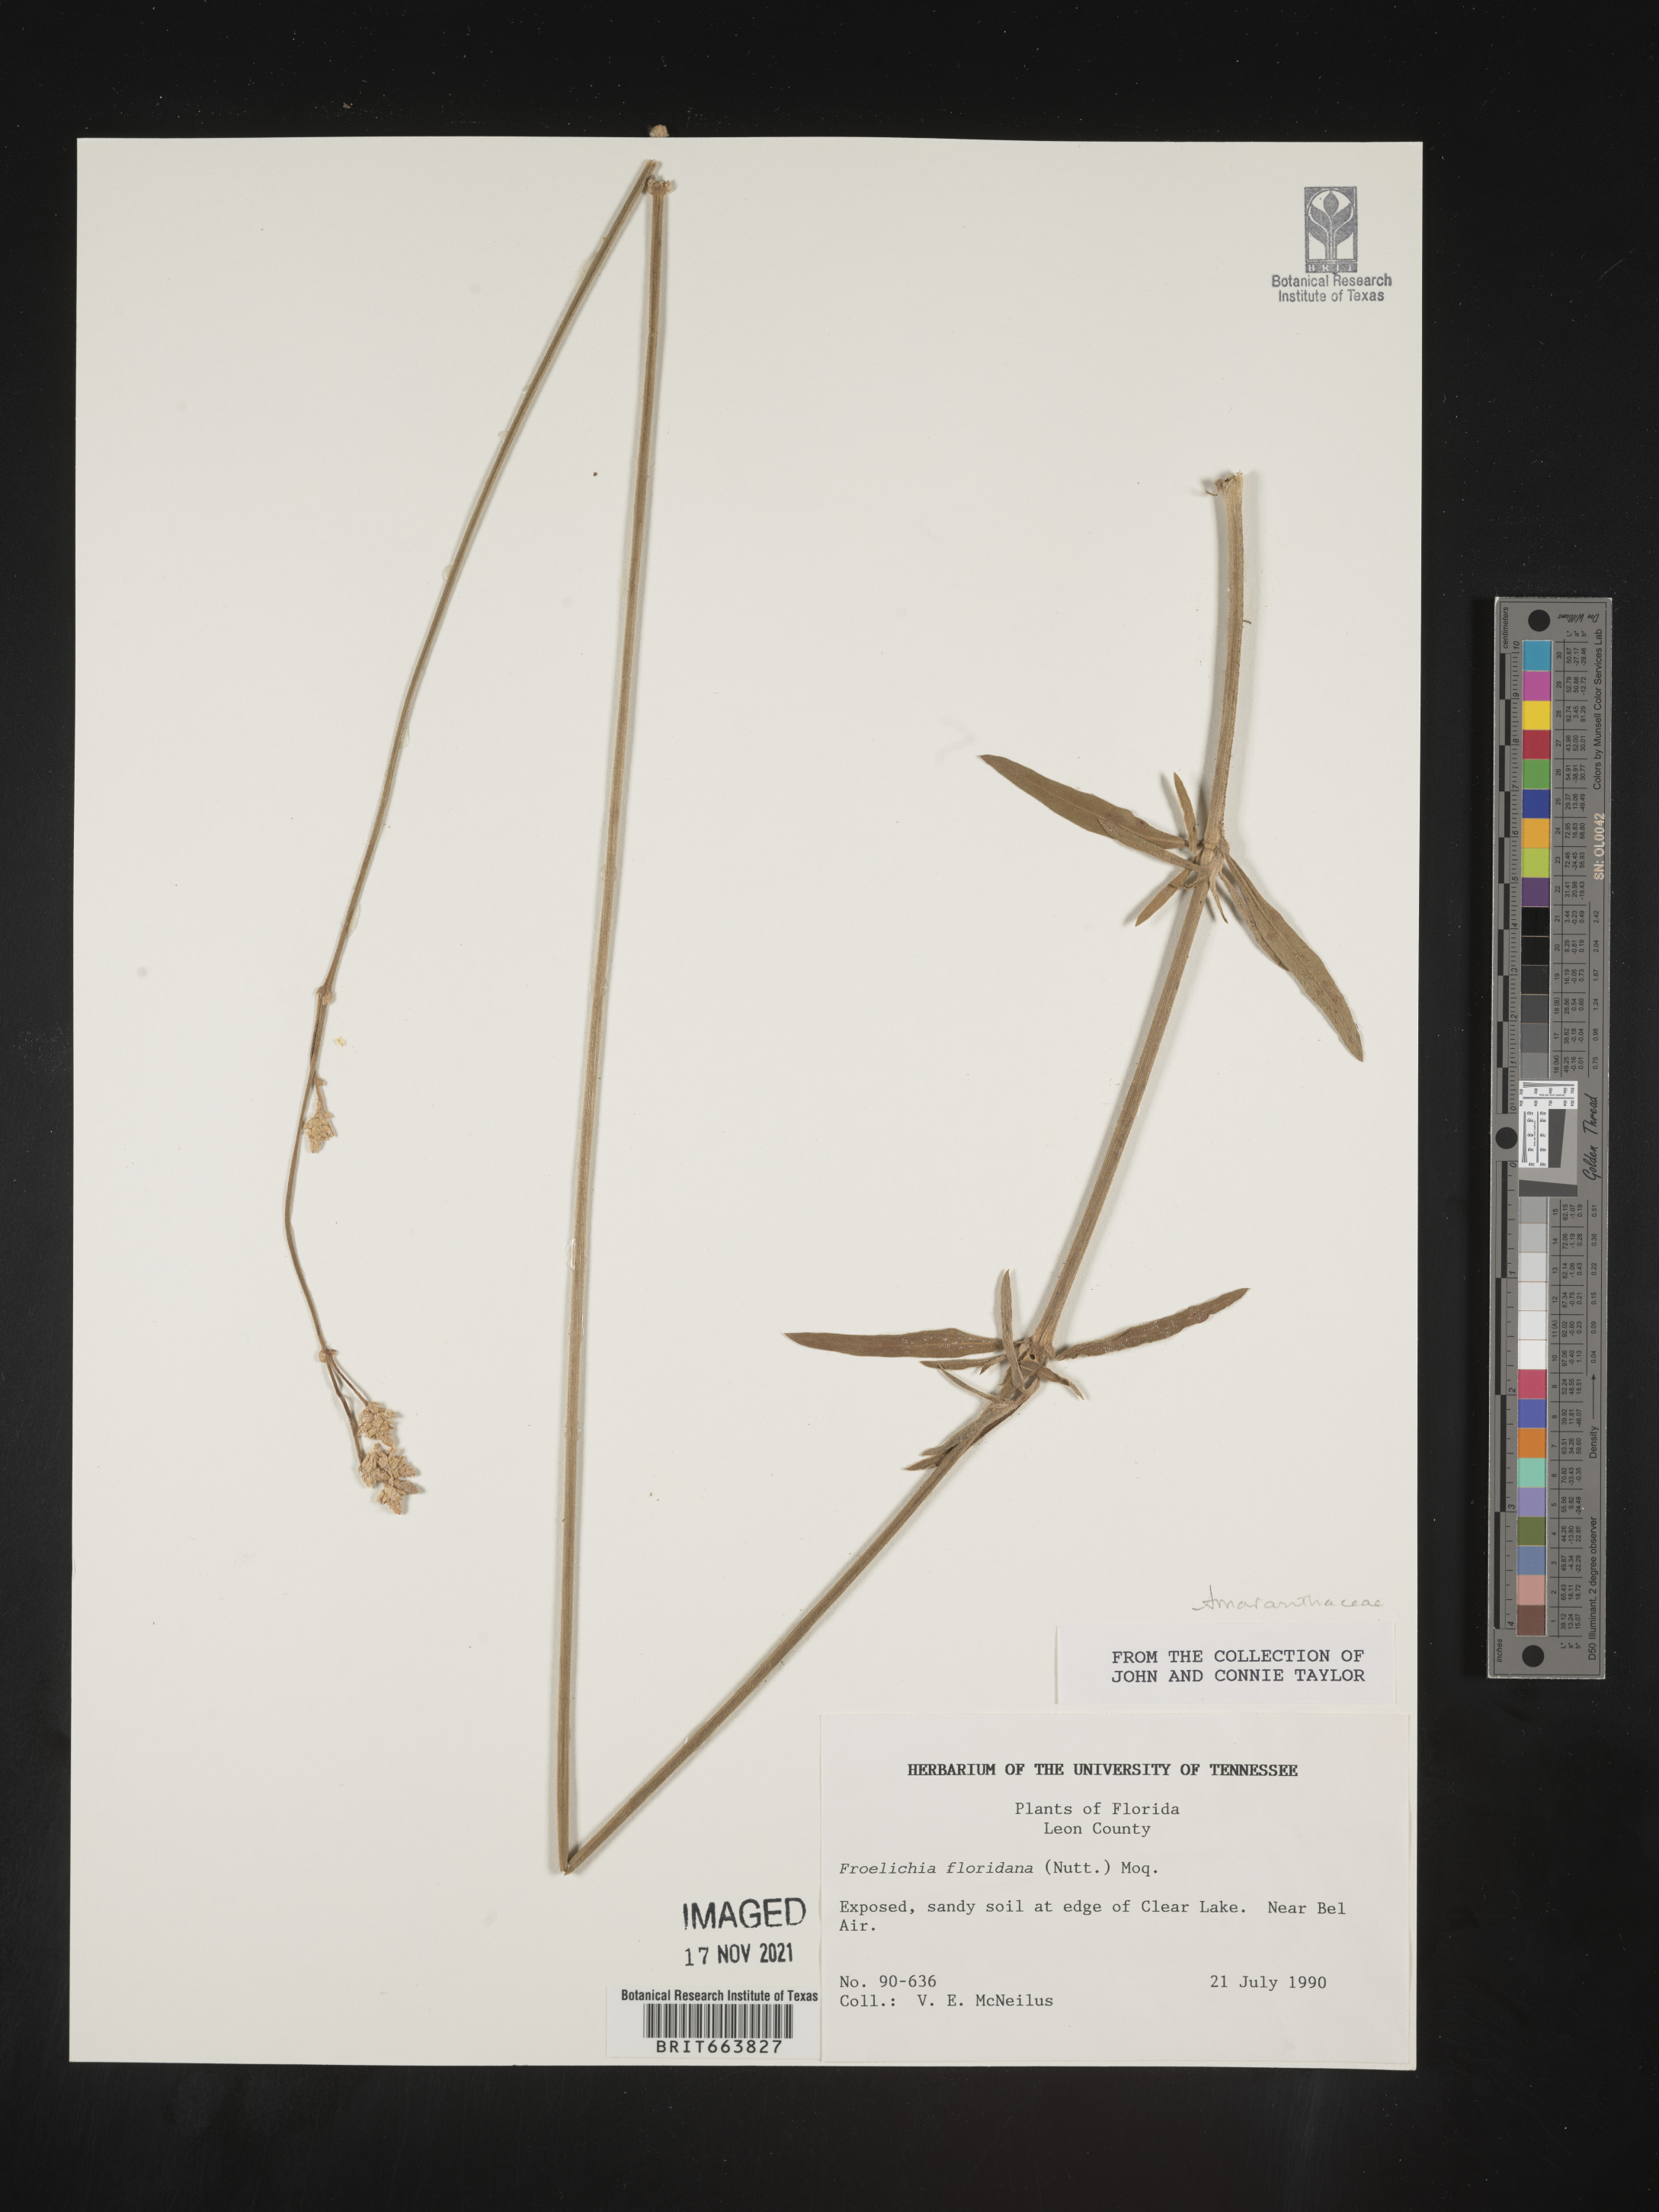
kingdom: Plantae
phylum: Tracheophyta
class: Magnoliopsida
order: Caryophyllales
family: Amaranthaceae
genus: Froelichia
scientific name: Froelichia floridana
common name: Florida snake-cotton
